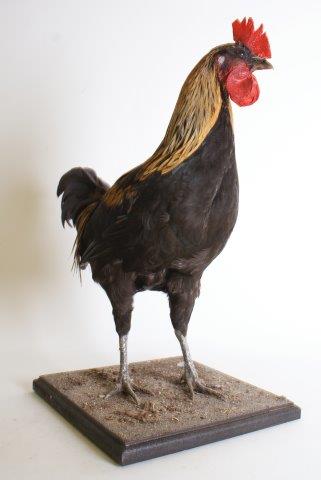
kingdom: Animalia
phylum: Chordata
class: Aves
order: Galliformes
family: Phasianidae
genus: Gallus
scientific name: Gallus gallus
